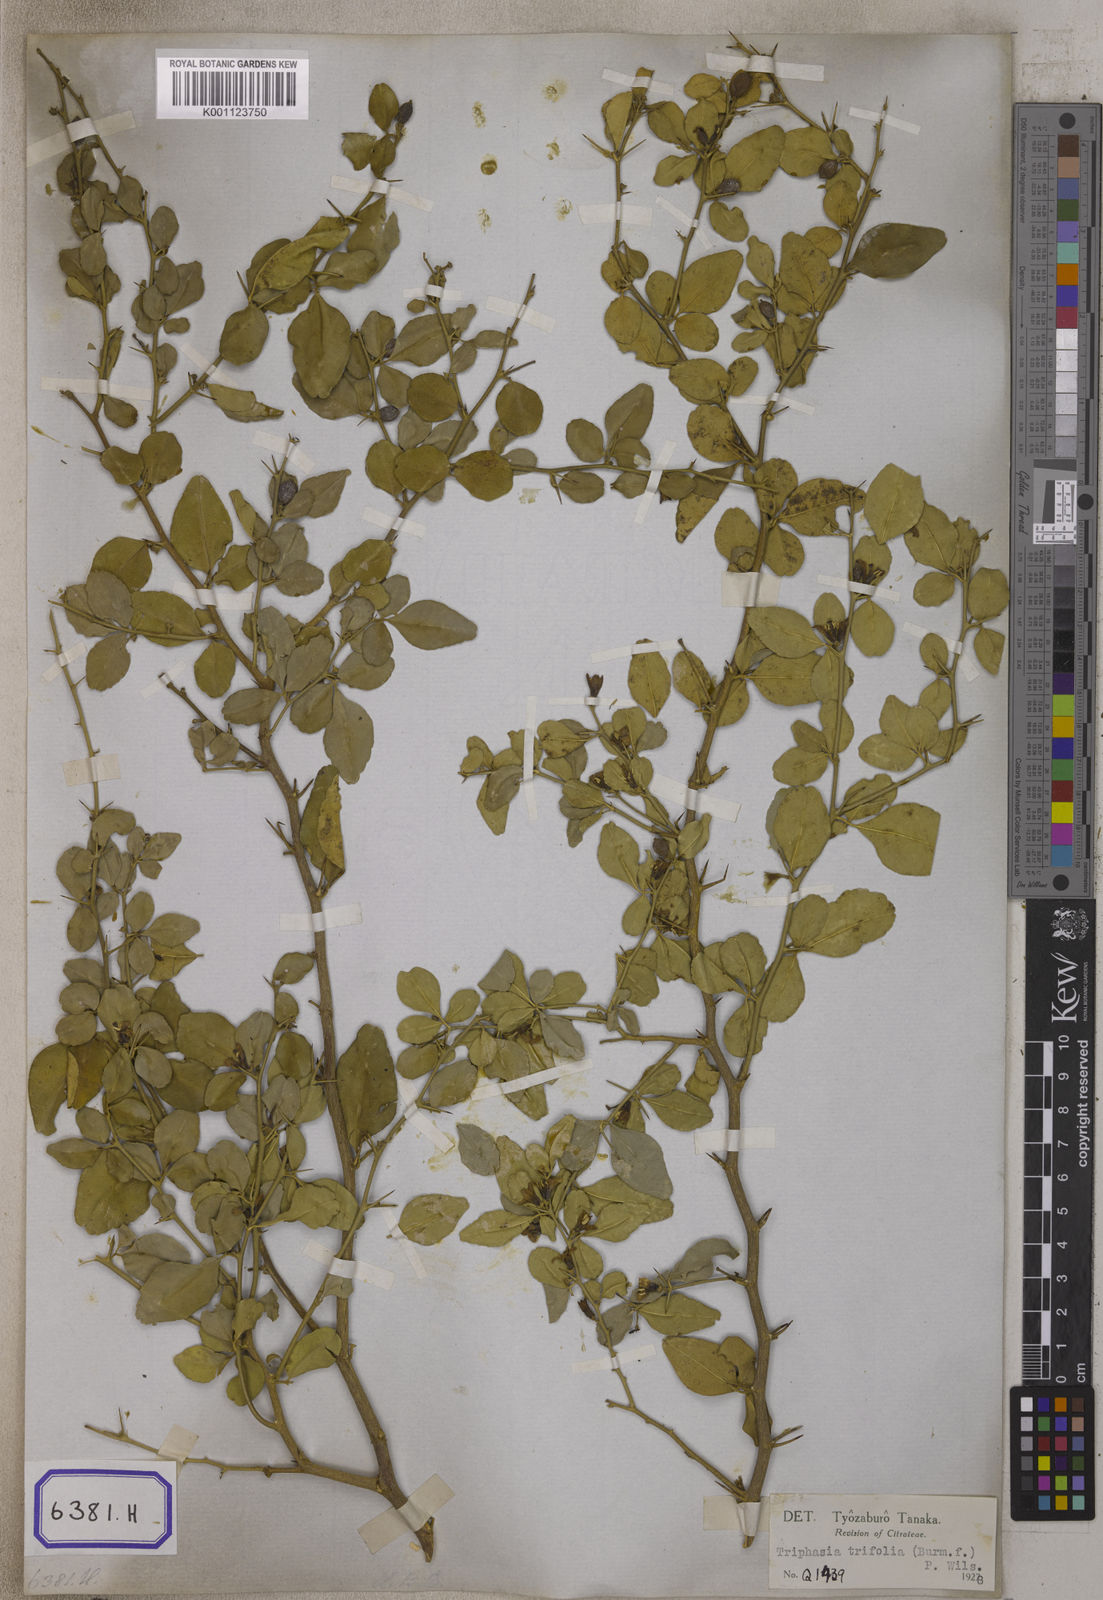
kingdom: Plantae
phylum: Tracheophyta
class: Magnoliopsida
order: Sapindales
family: Rutaceae
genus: Triphasia
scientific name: Triphasia trifolia
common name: Limeberry
